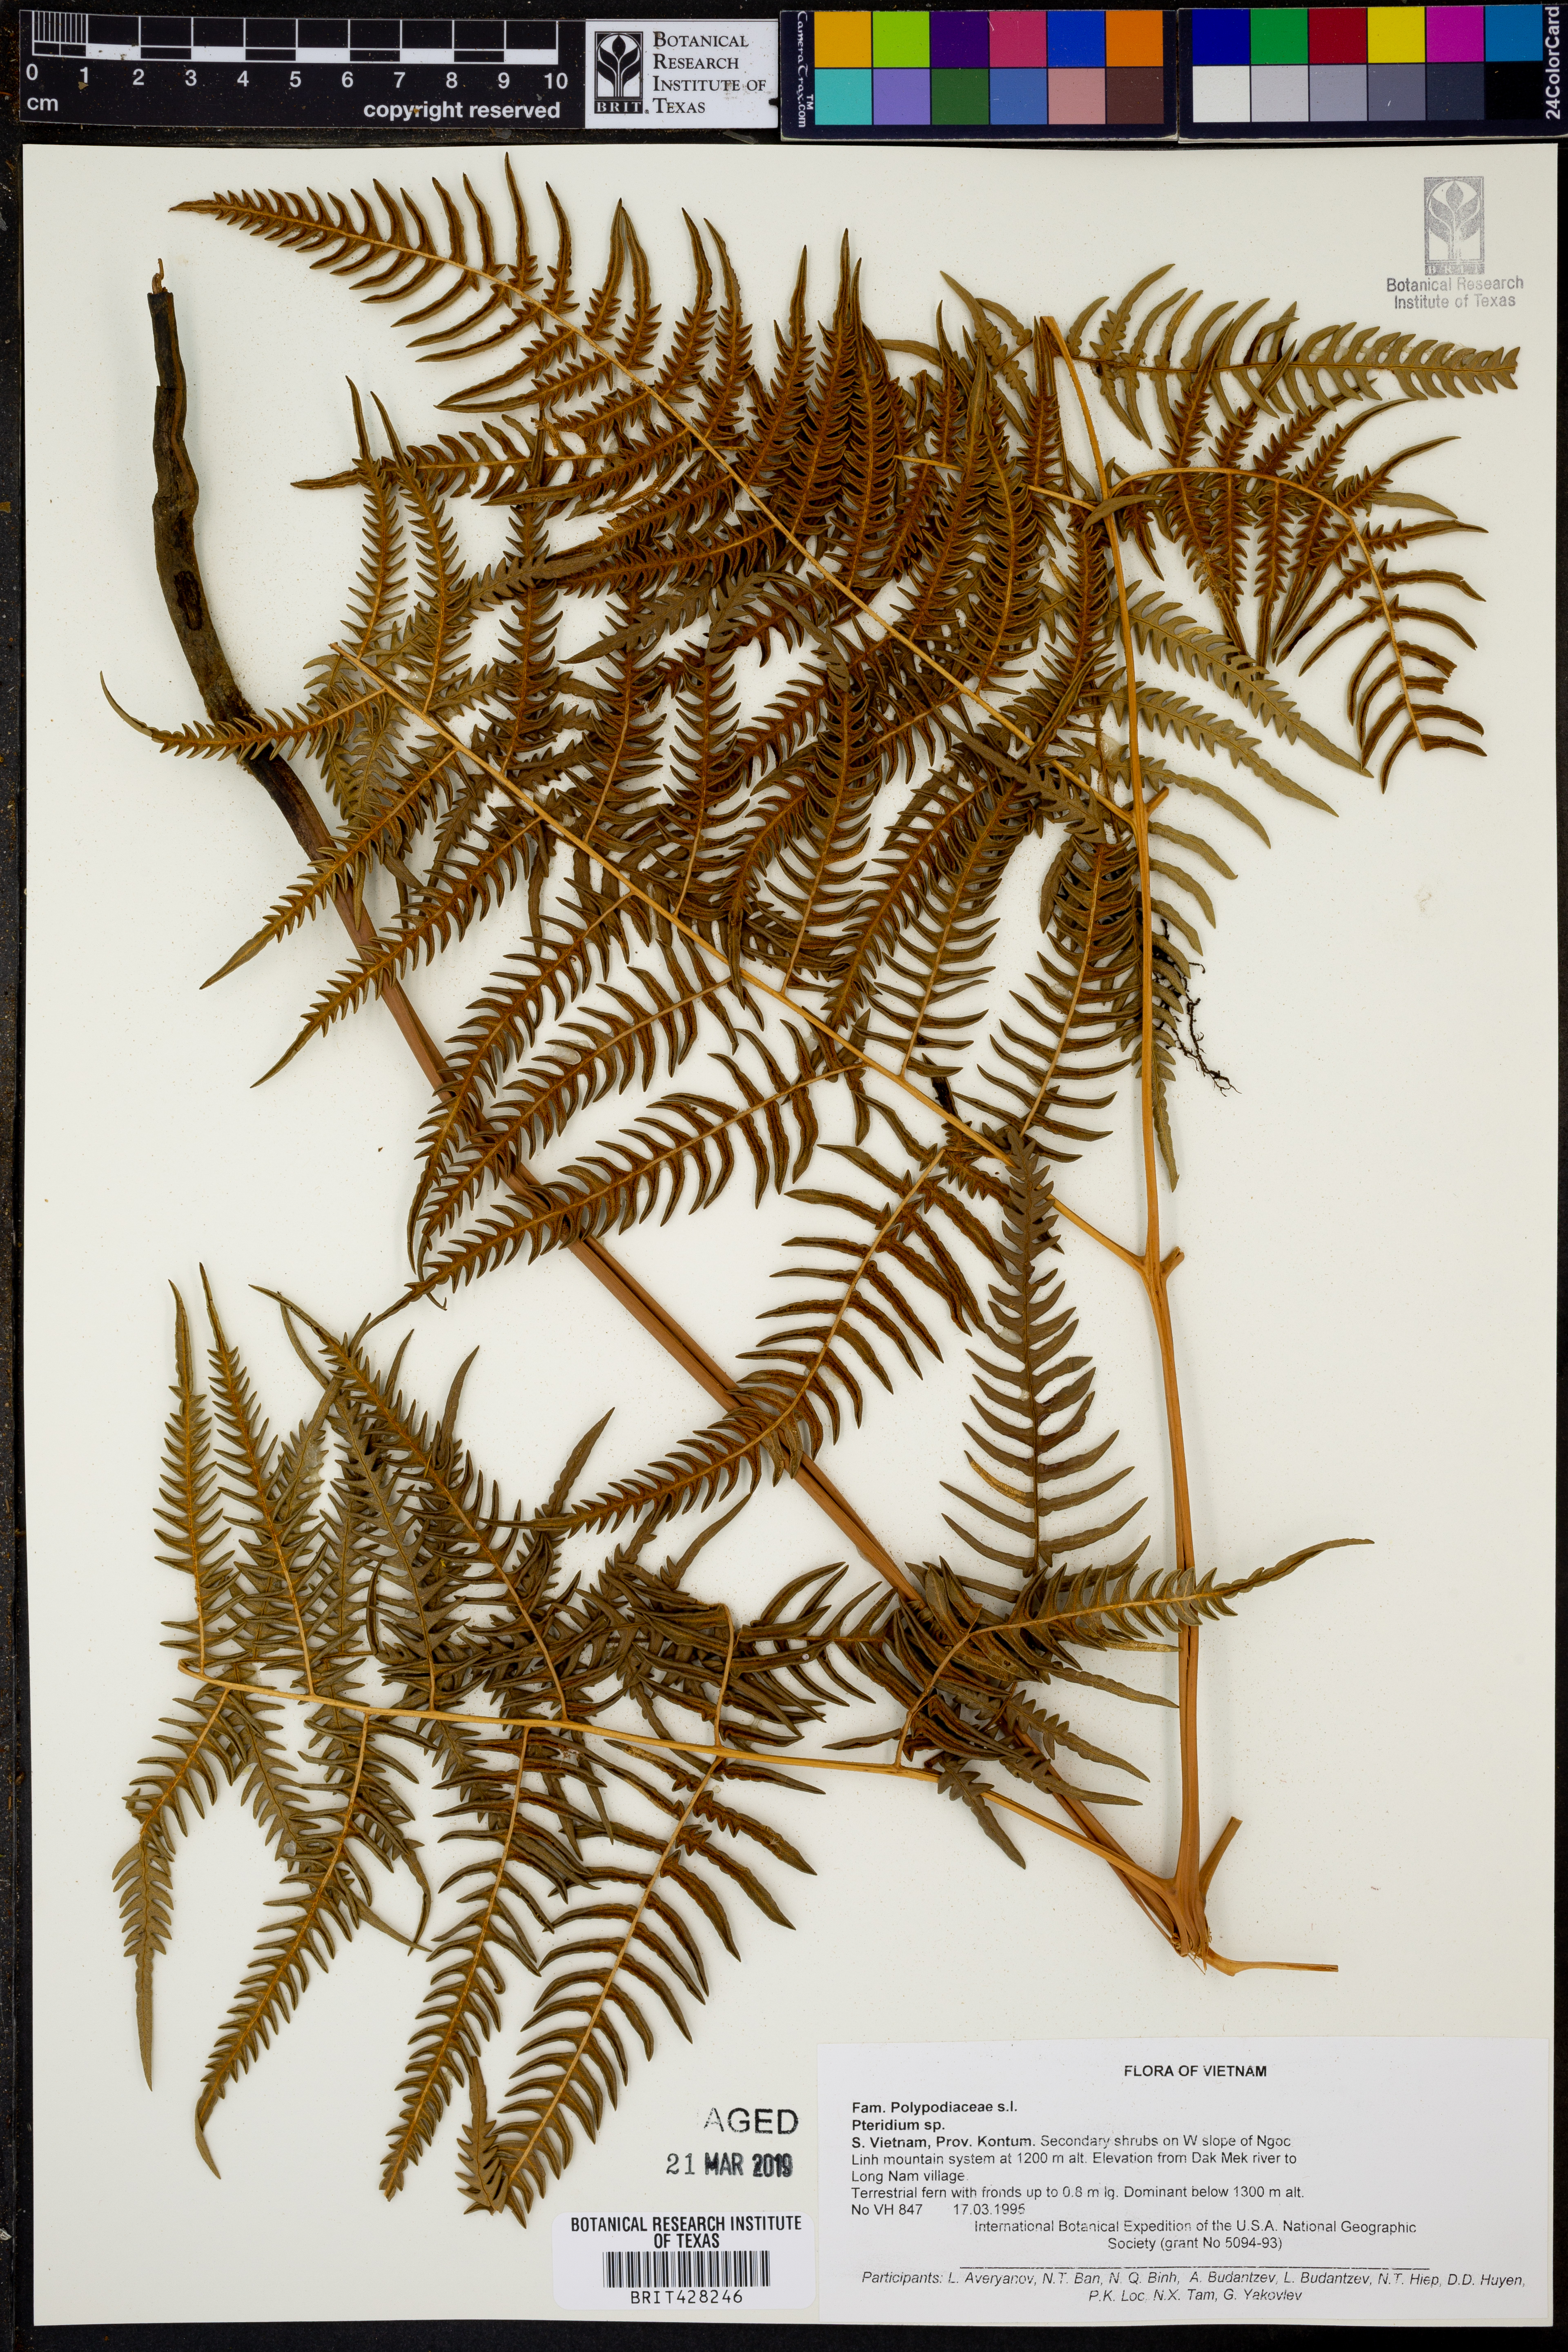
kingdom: Plantae
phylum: Tracheophyta
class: Polypodiopsida
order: Polypodiales
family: Dennstaedtiaceae
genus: Pteridium
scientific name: Pteridium
